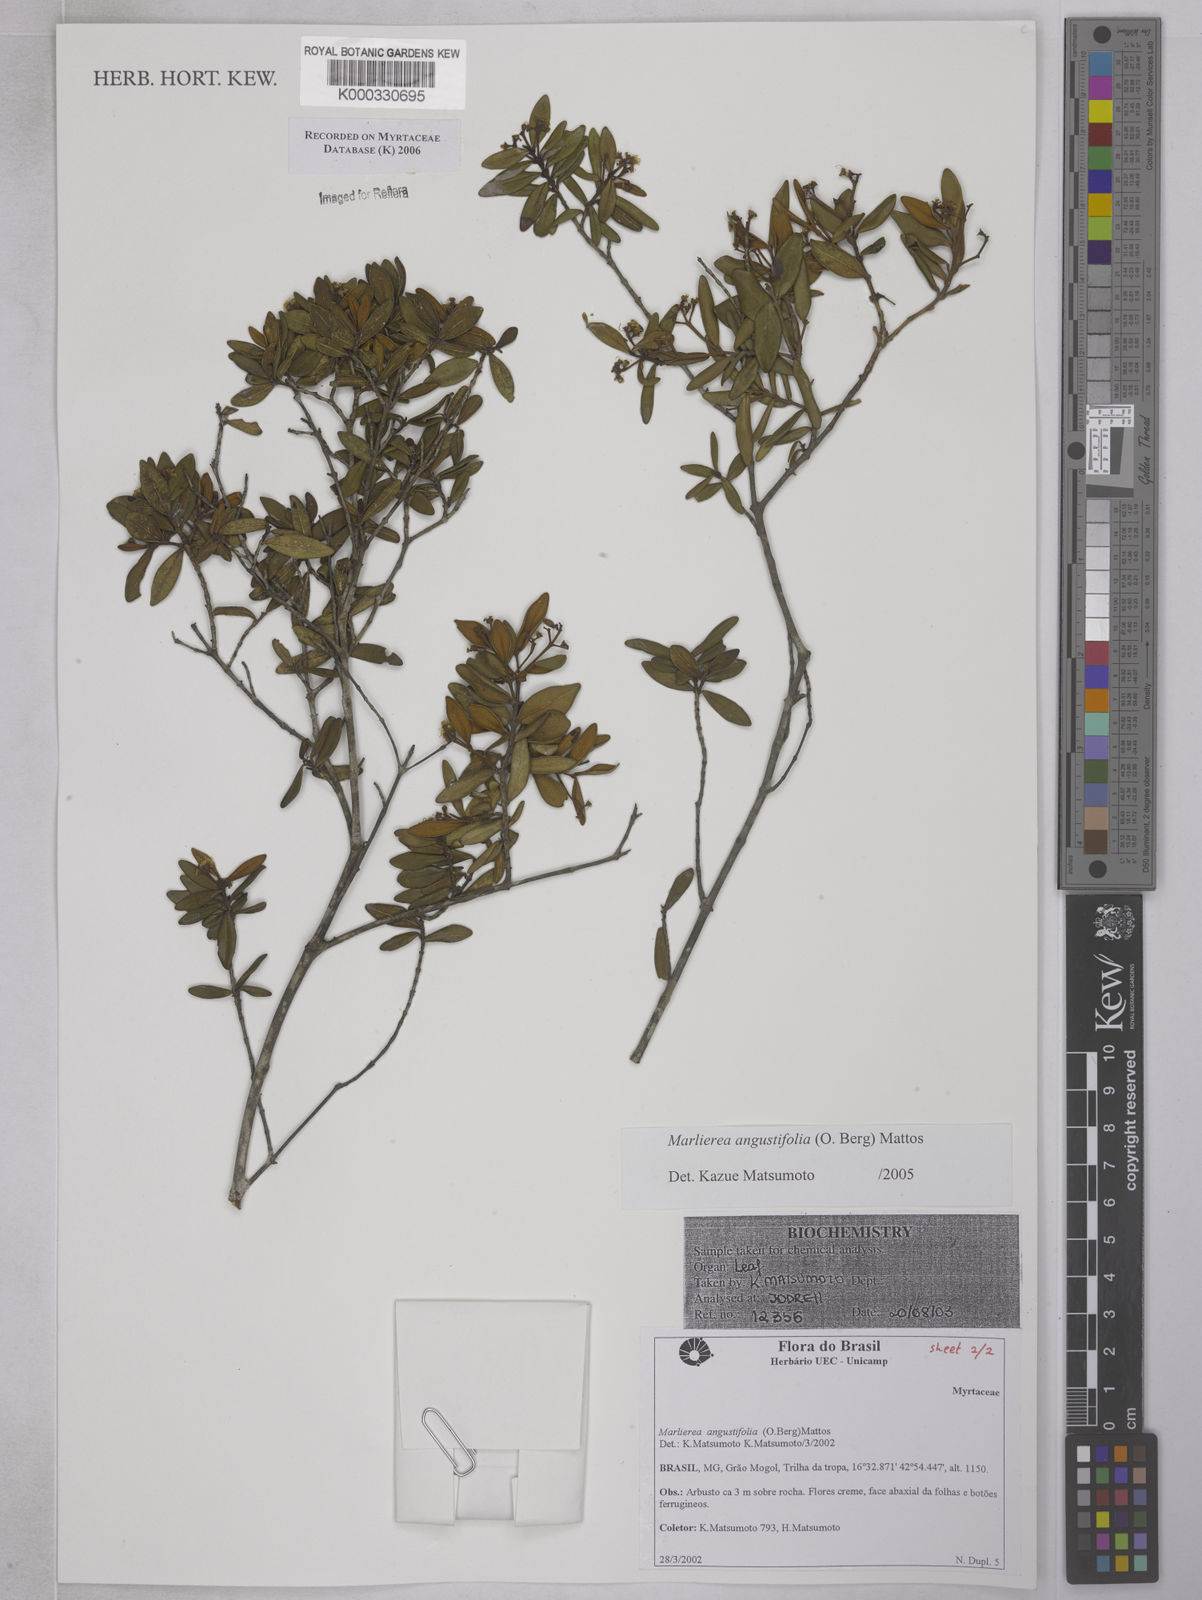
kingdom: Plantae
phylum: Tracheophyta
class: Magnoliopsida
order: Myrtales
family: Myrtaceae
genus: Myrcia
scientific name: Myrcia lenheirensis
